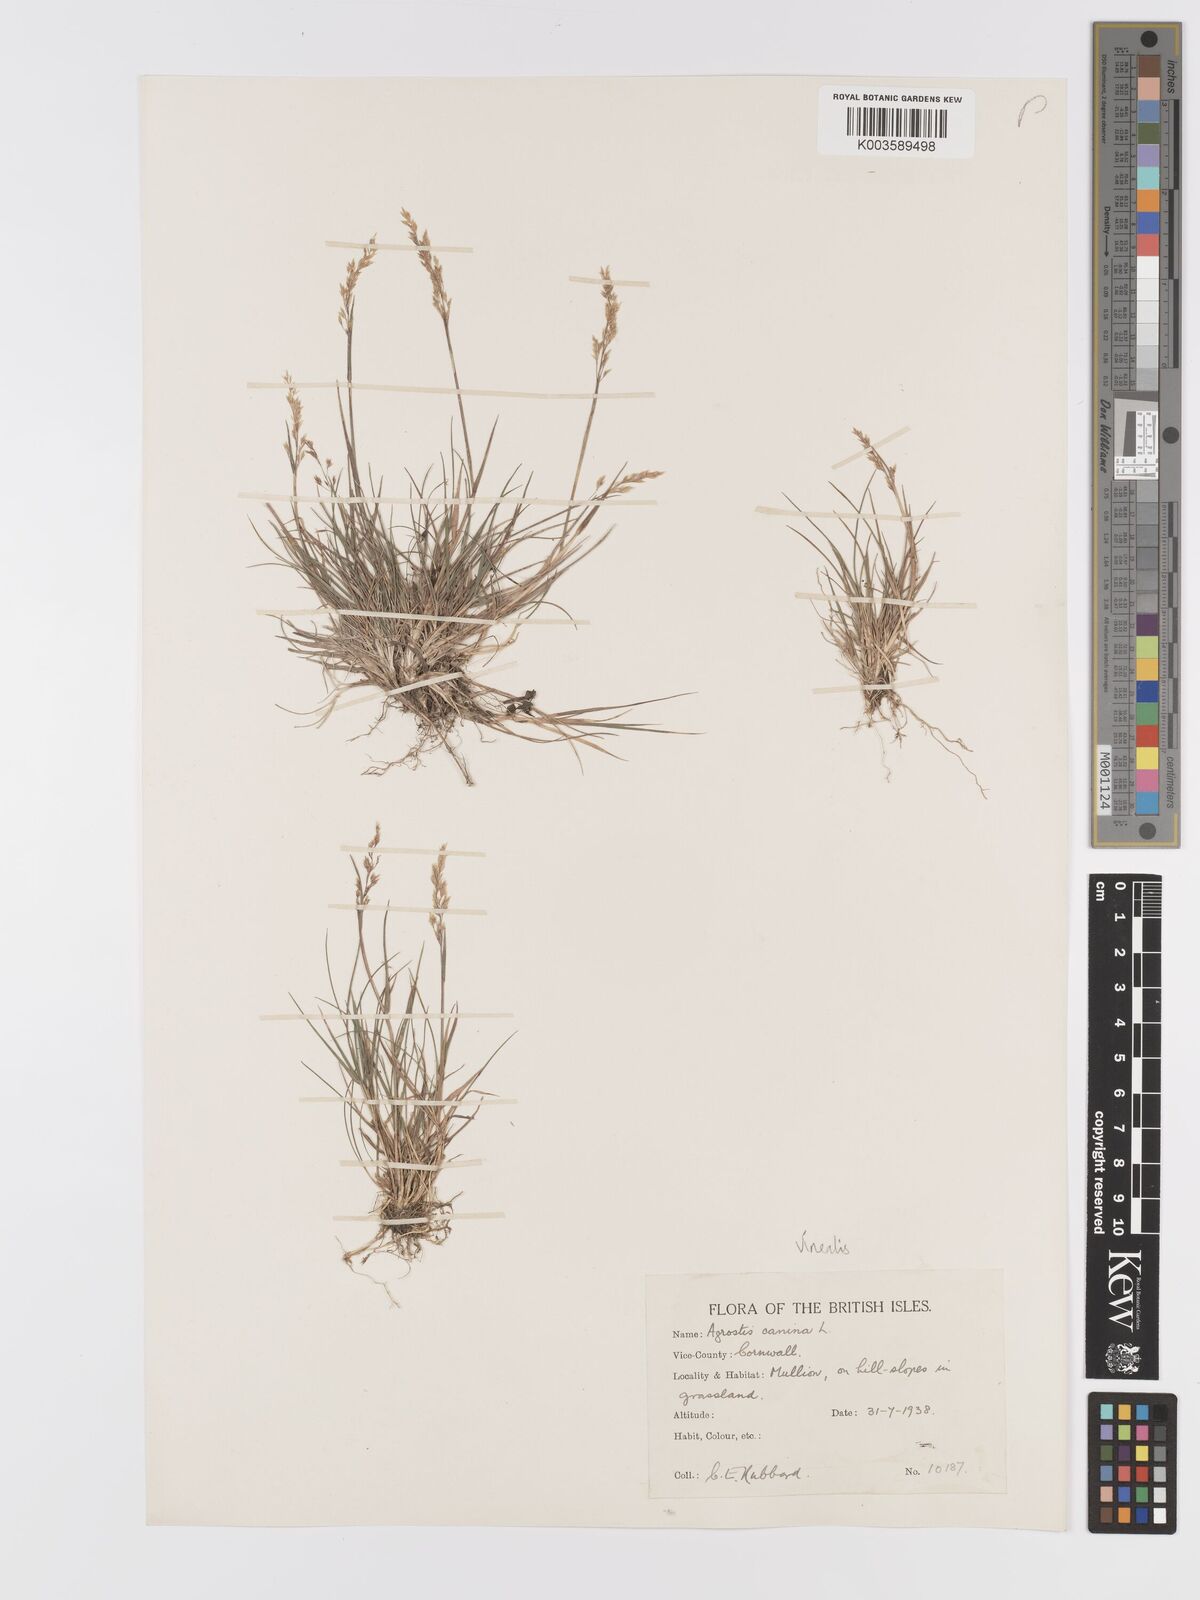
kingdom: Plantae
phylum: Tracheophyta
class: Liliopsida
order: Poales
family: Poaceae
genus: Agrostis
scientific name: Agrostis
